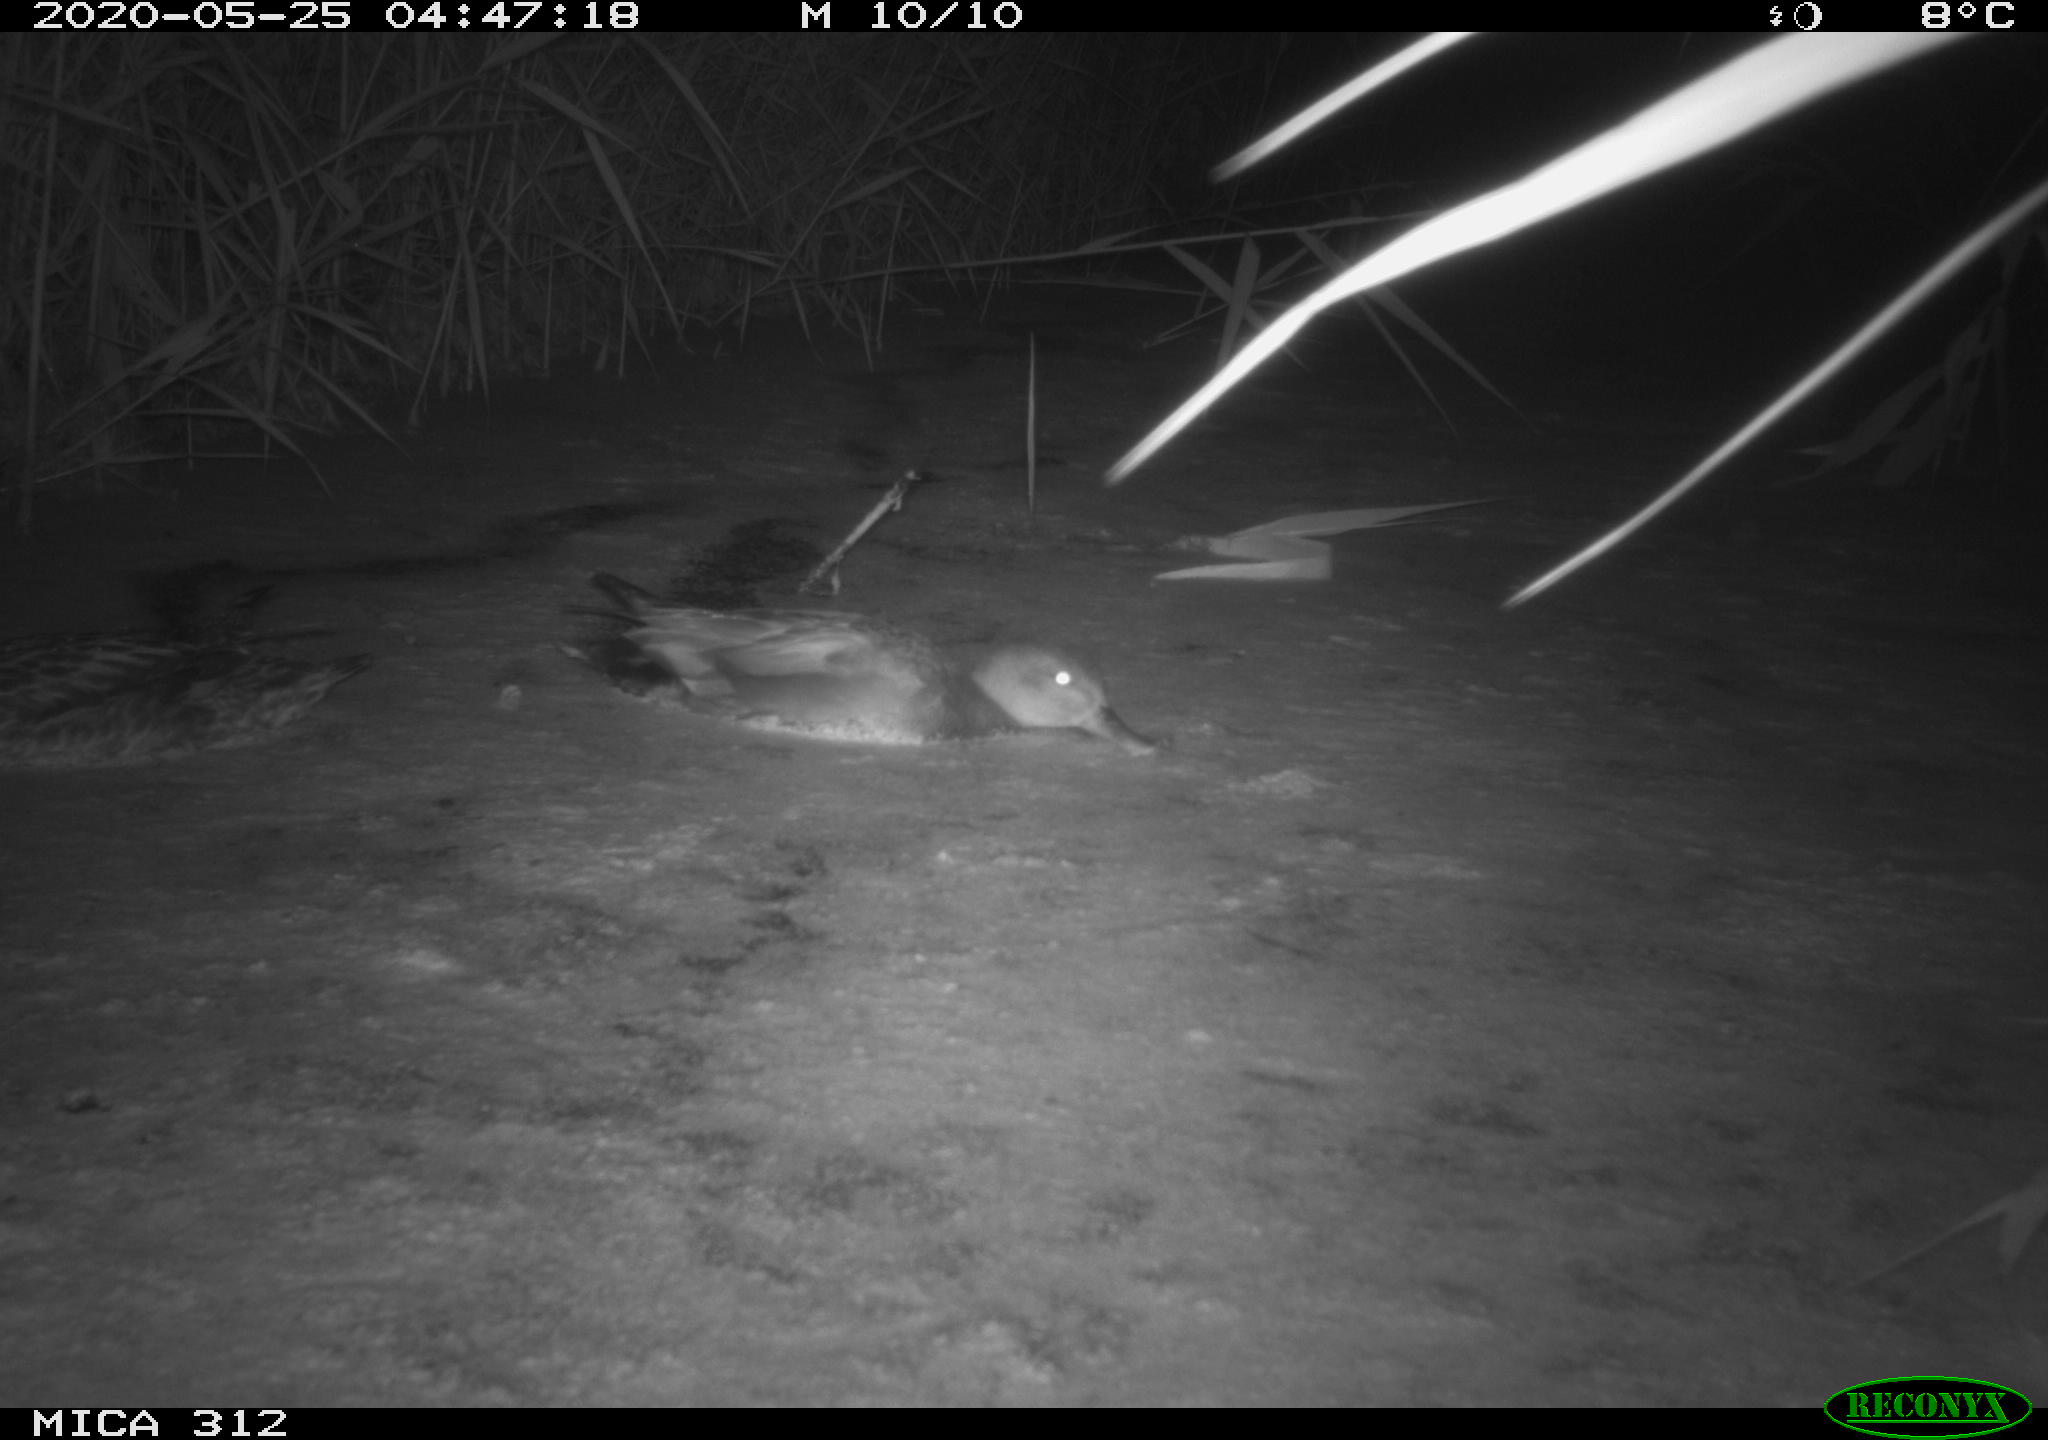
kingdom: Animalia
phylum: Chordata
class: Aves
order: Anseriformes
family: Anatidae
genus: Anas
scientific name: Anas platyrhynchos
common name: Mallard
